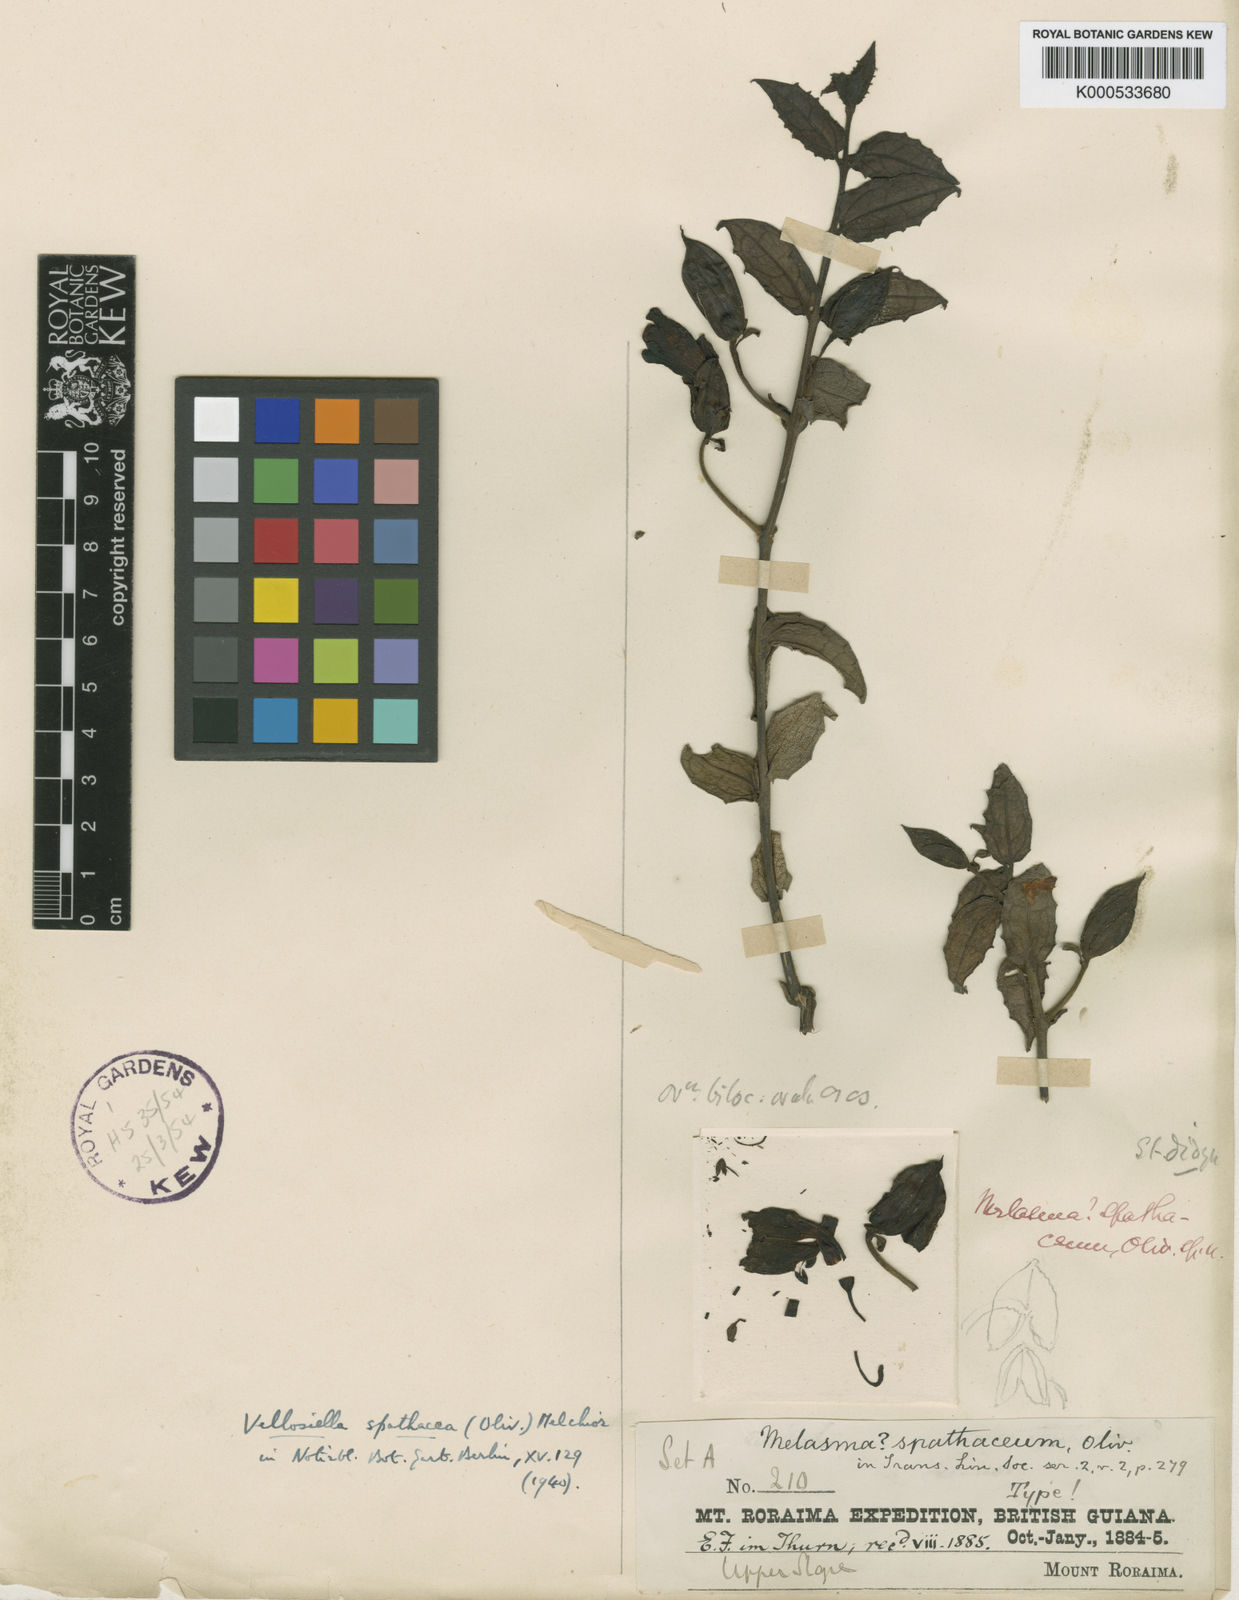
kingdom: Plantae
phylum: Tracheophyta
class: Magnoliopsida
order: Lamiales
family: Orobanchaceae
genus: Vellosiella
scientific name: Vellosiella spathacea
